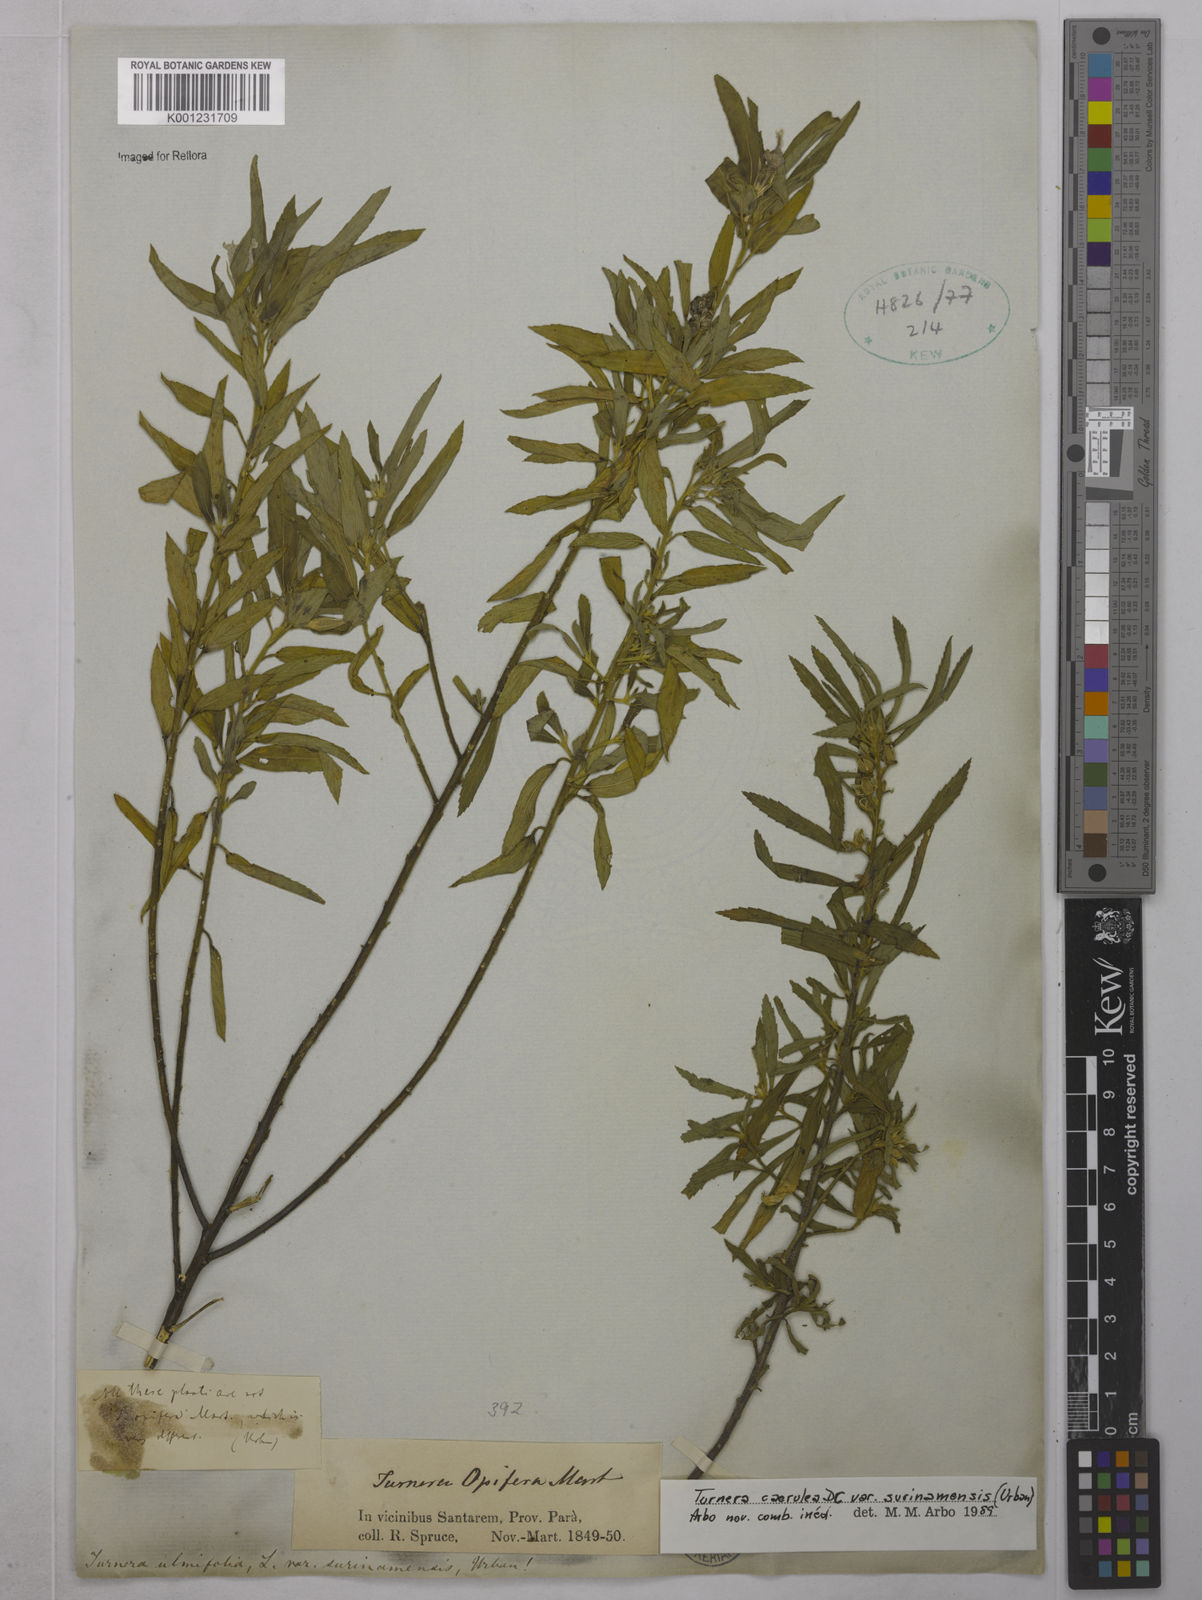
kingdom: Plantae
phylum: Tracheophyta
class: Magnoliopsida
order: Malpighiales
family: Turneraceae
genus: Turnera
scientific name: Turnera
